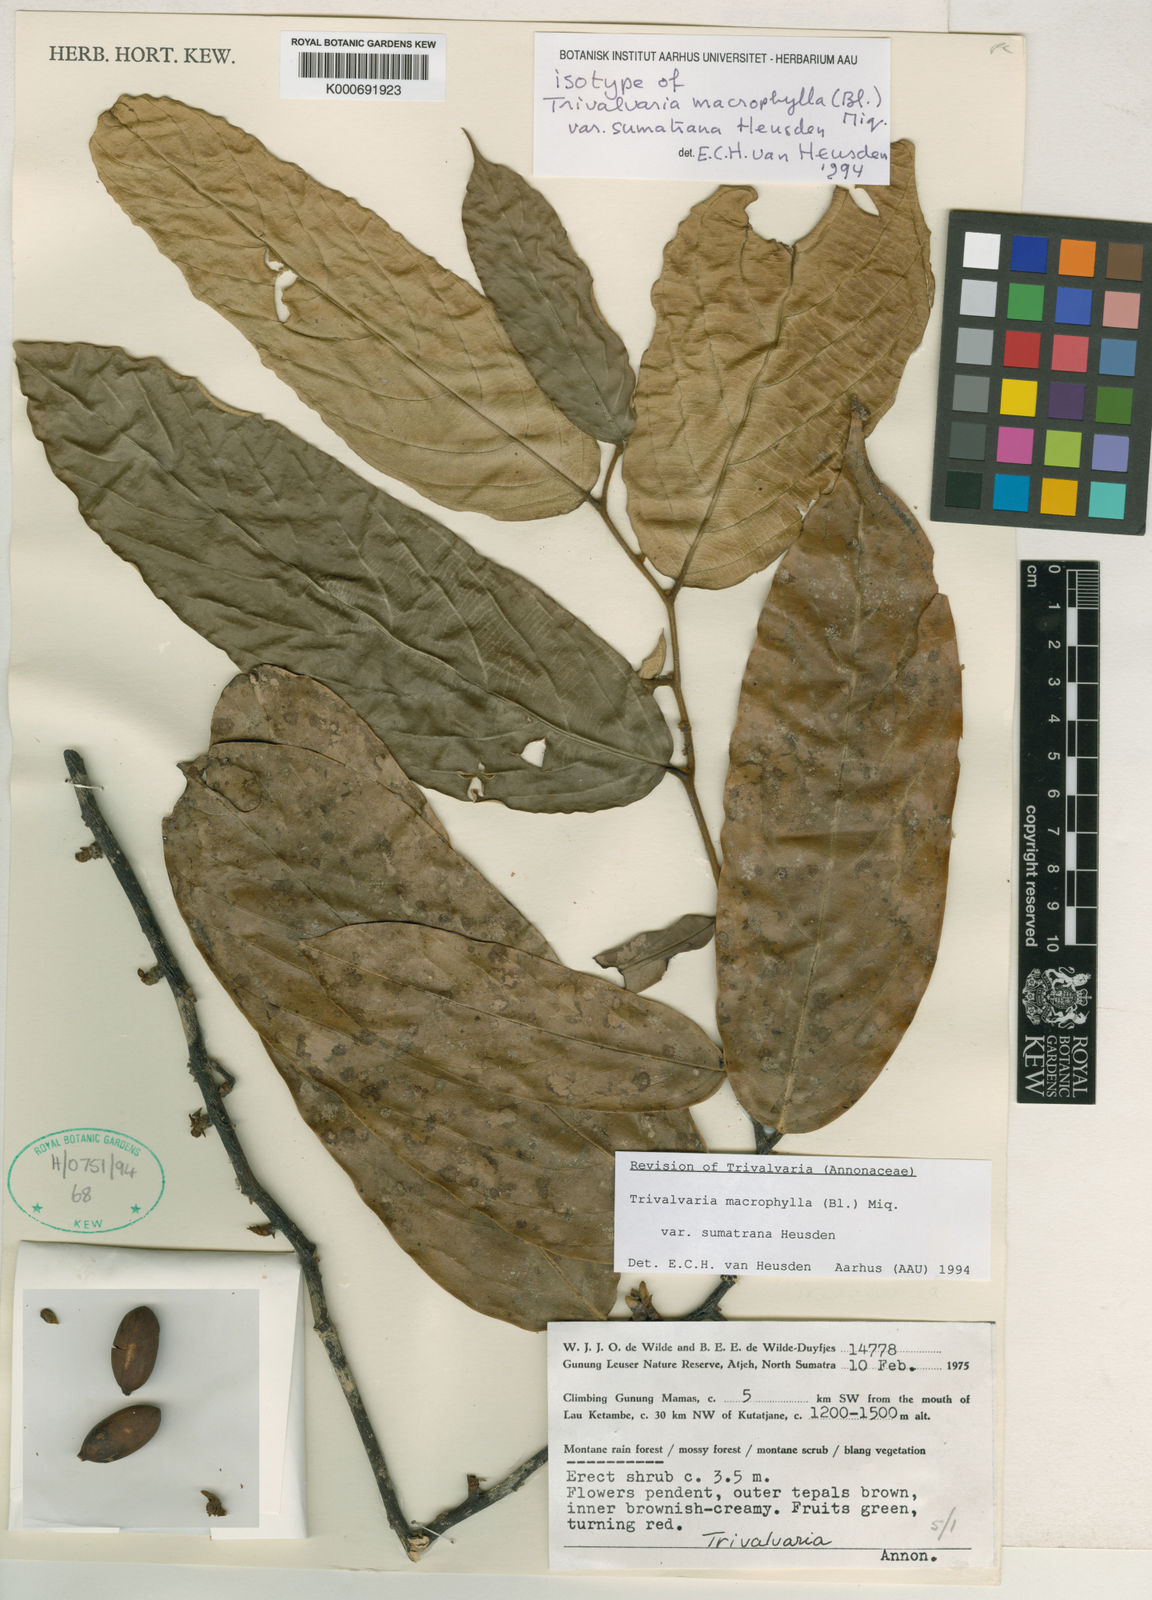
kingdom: Plantae
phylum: Tracheophyta
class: Magnoliopsida
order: Magnoliales
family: Annonaceae
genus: Trivalvaria
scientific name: Trivalvaria macrophylla
